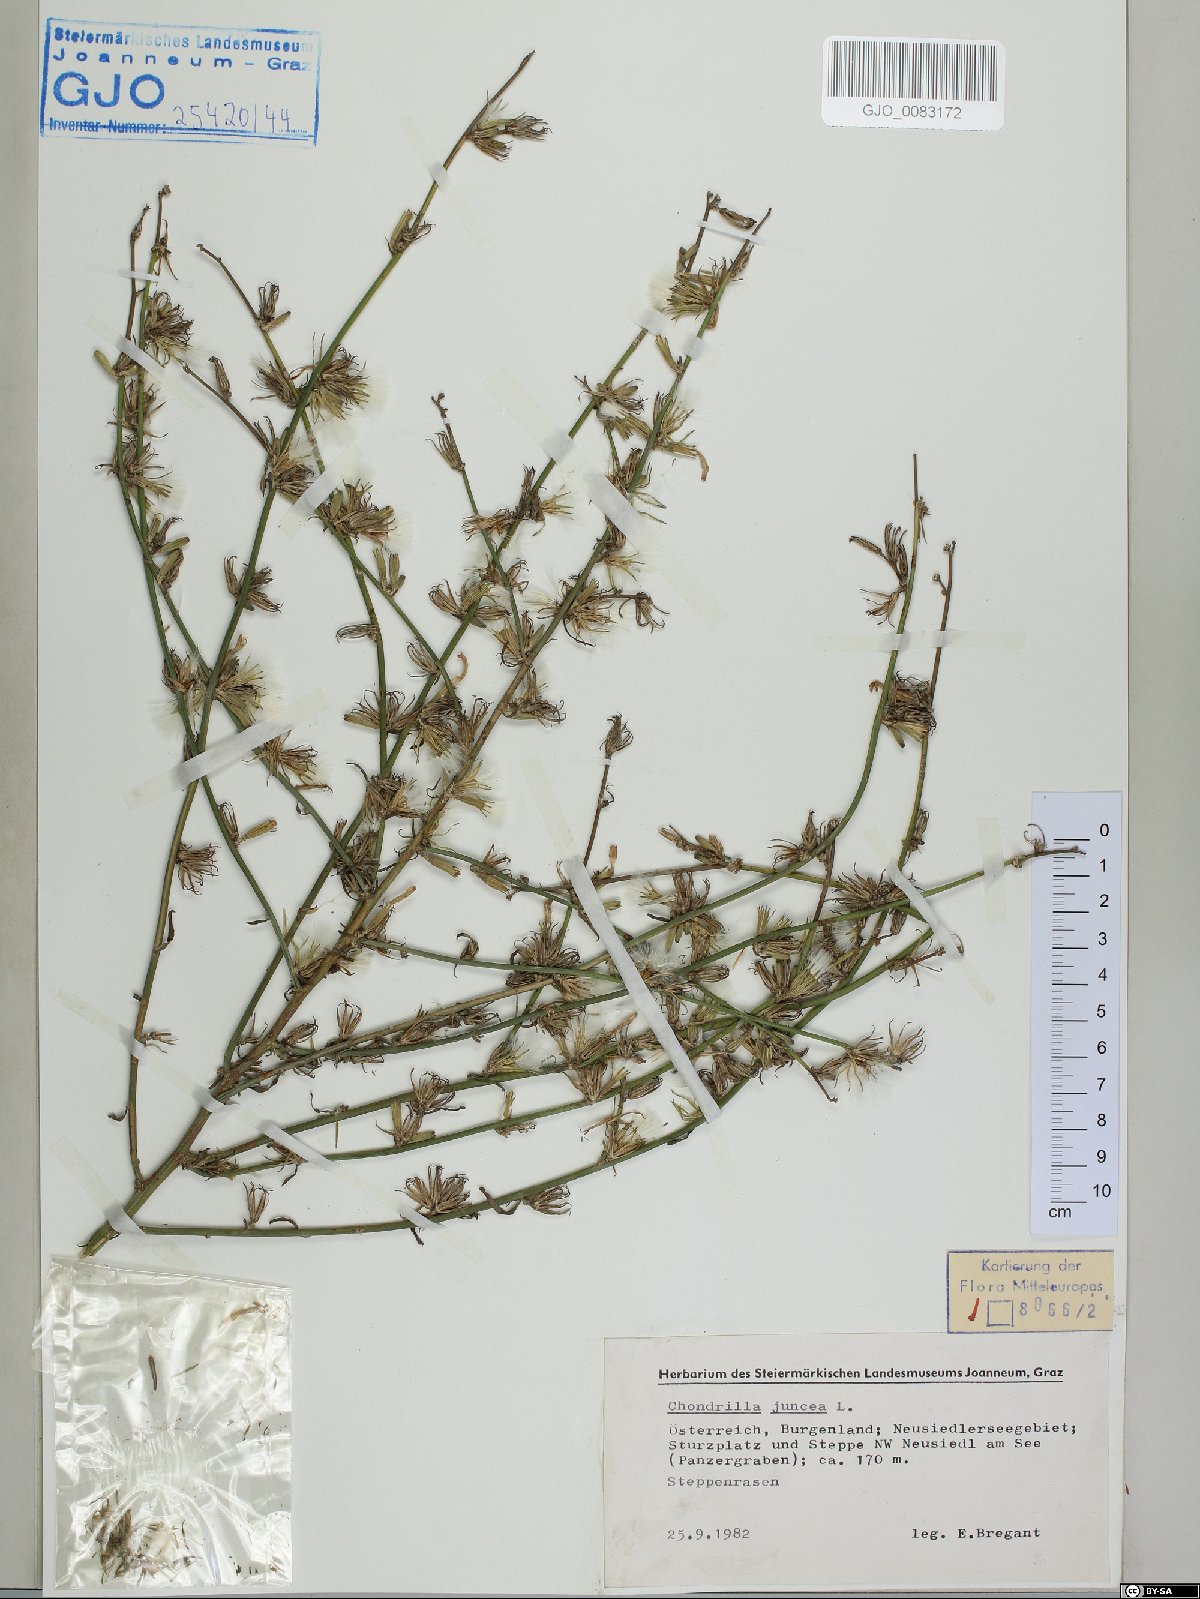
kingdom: Plantae
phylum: Tracheophyta
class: Magnoliopsida
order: Asterales
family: Asteraceae
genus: Chondrilla
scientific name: Chondrilla juncea
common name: Skeleton weed
